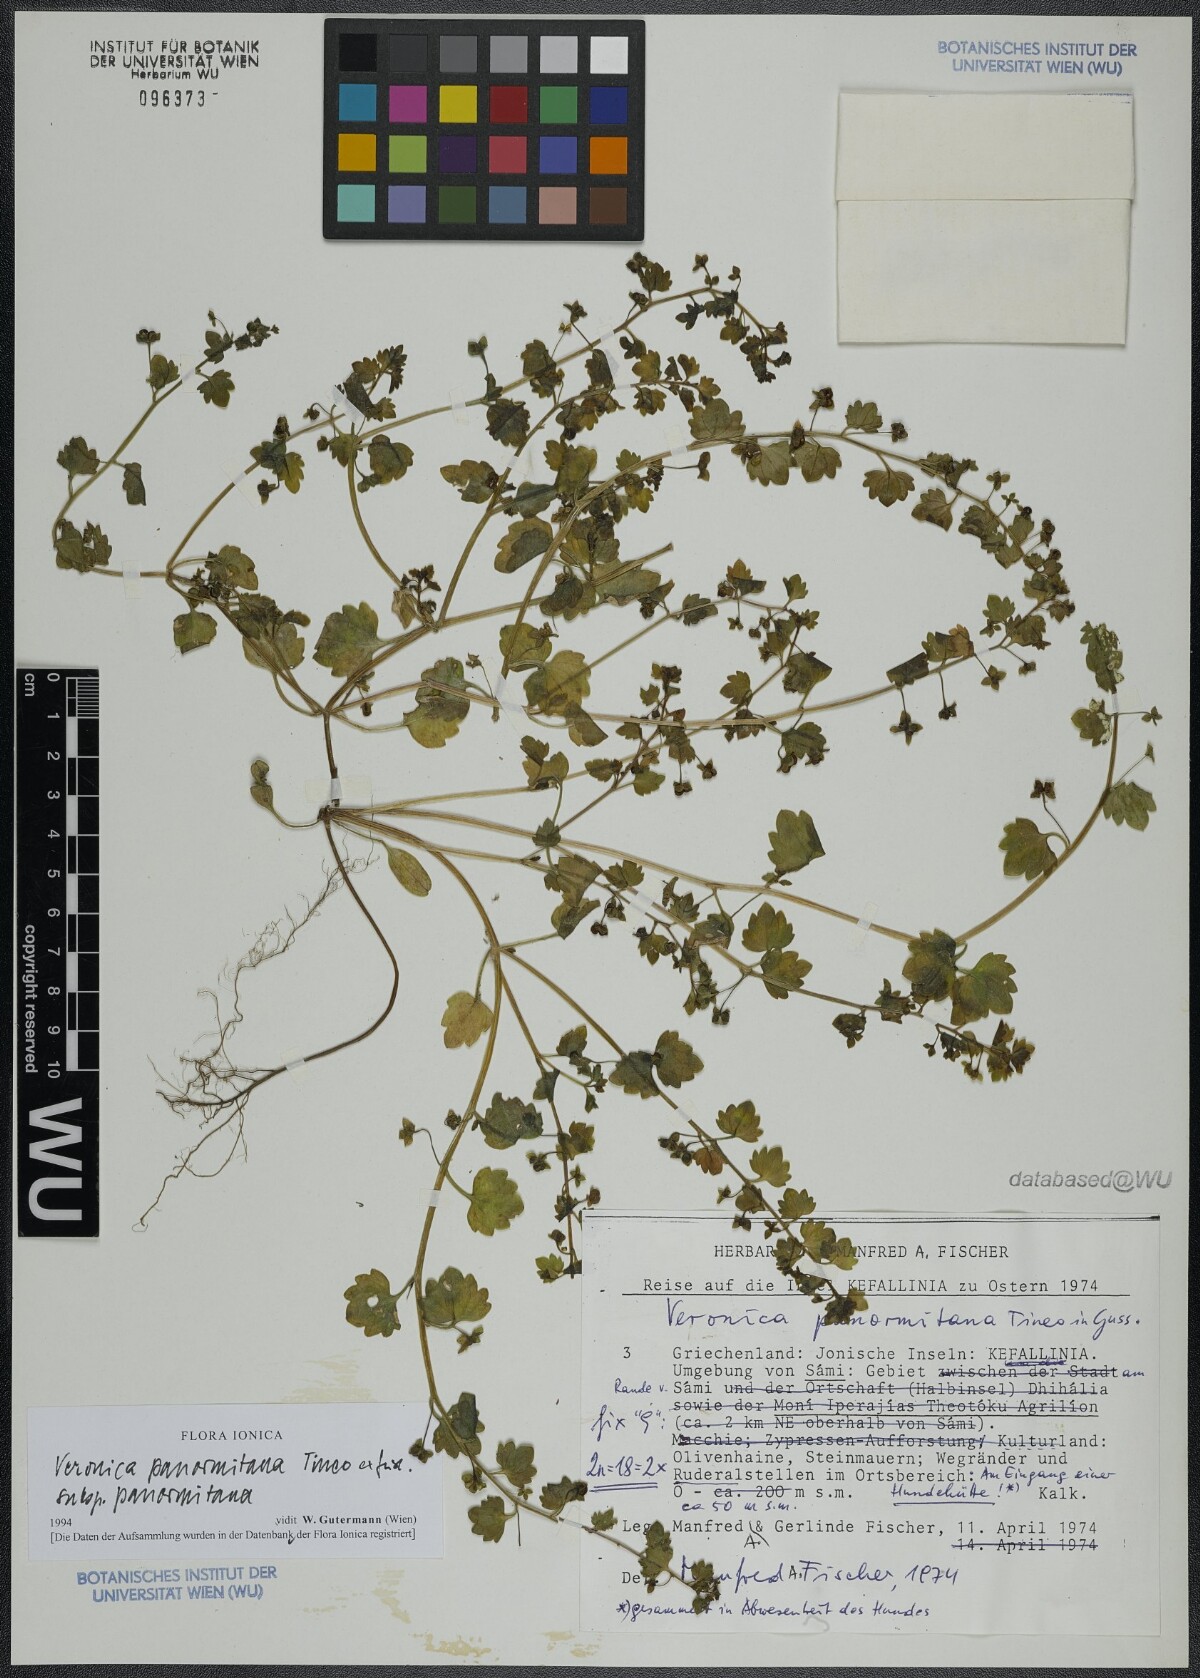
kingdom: Plantae
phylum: Tracheophyta
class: Magnoliopsida
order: Lamiales
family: Plantaginaceae
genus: Veronica
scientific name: Veronica panormitana
